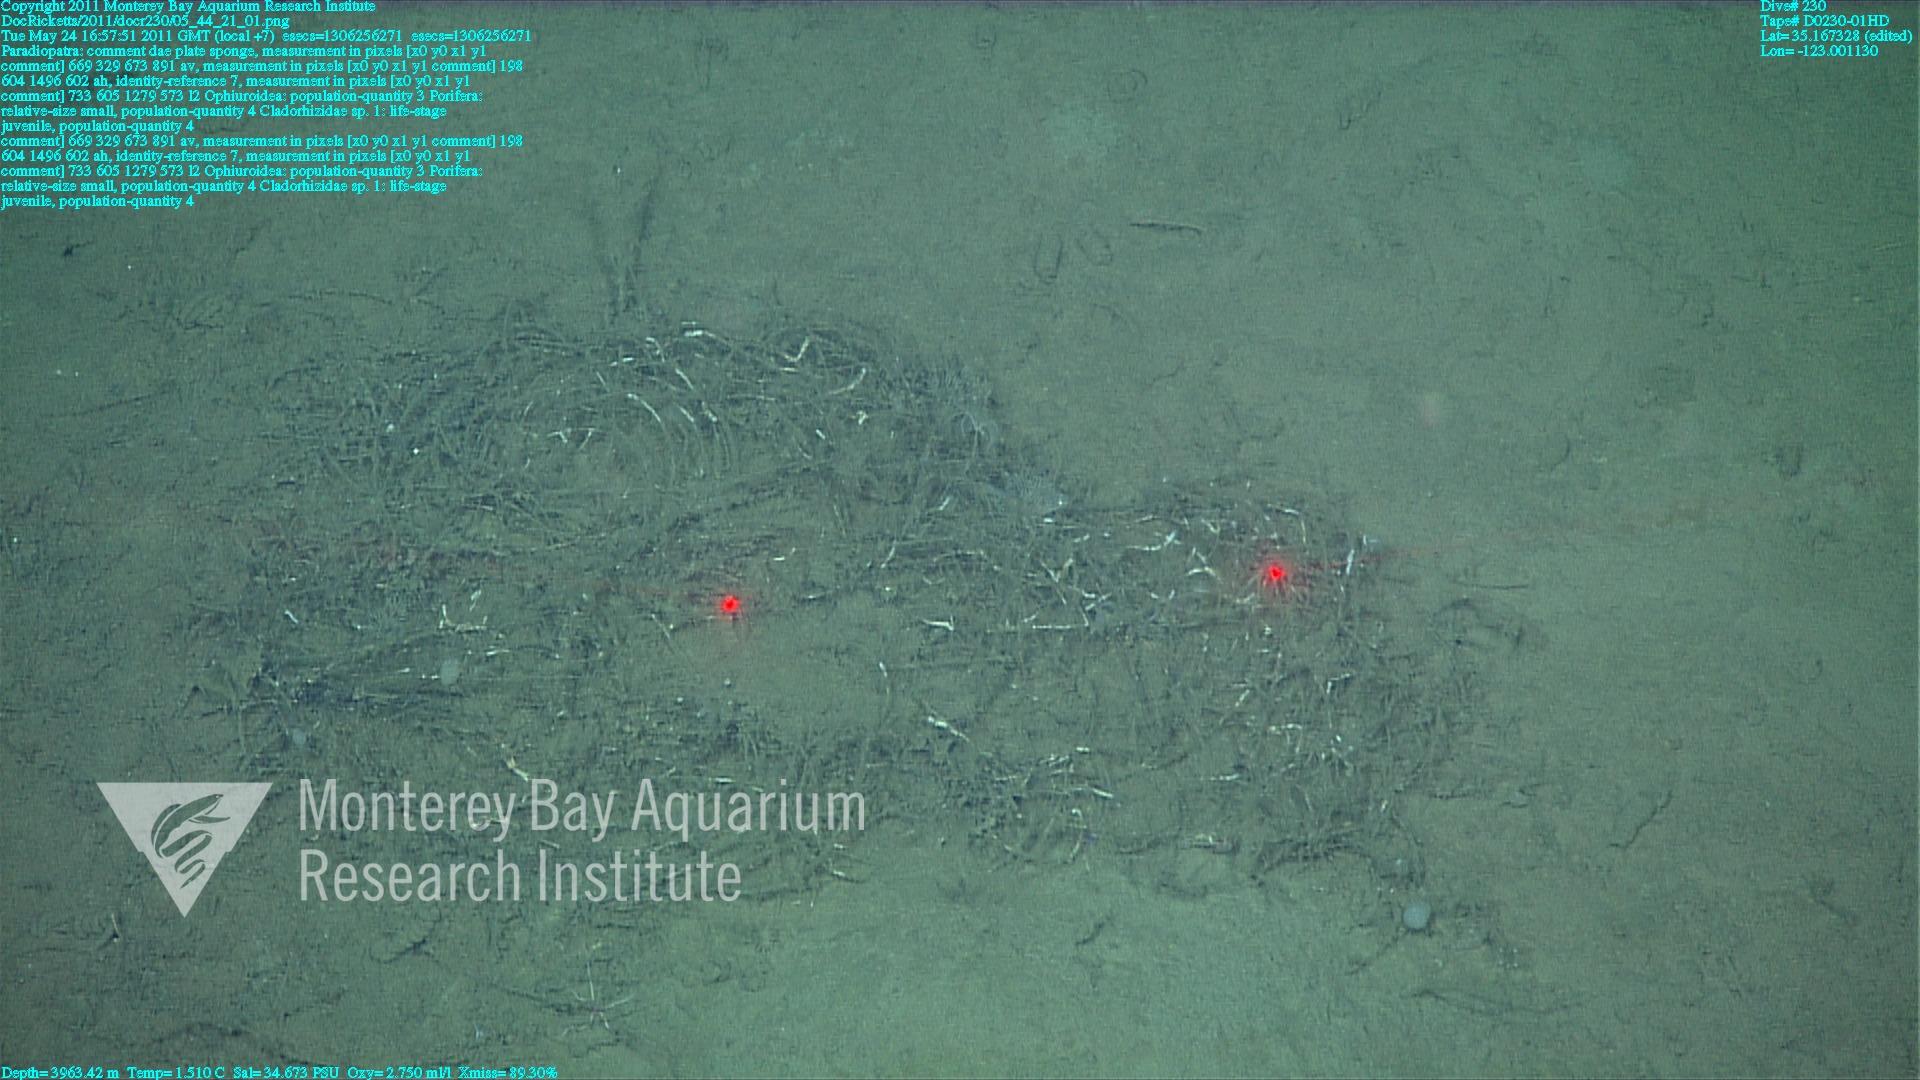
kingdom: Animalia
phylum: Porifera
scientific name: Porifera
